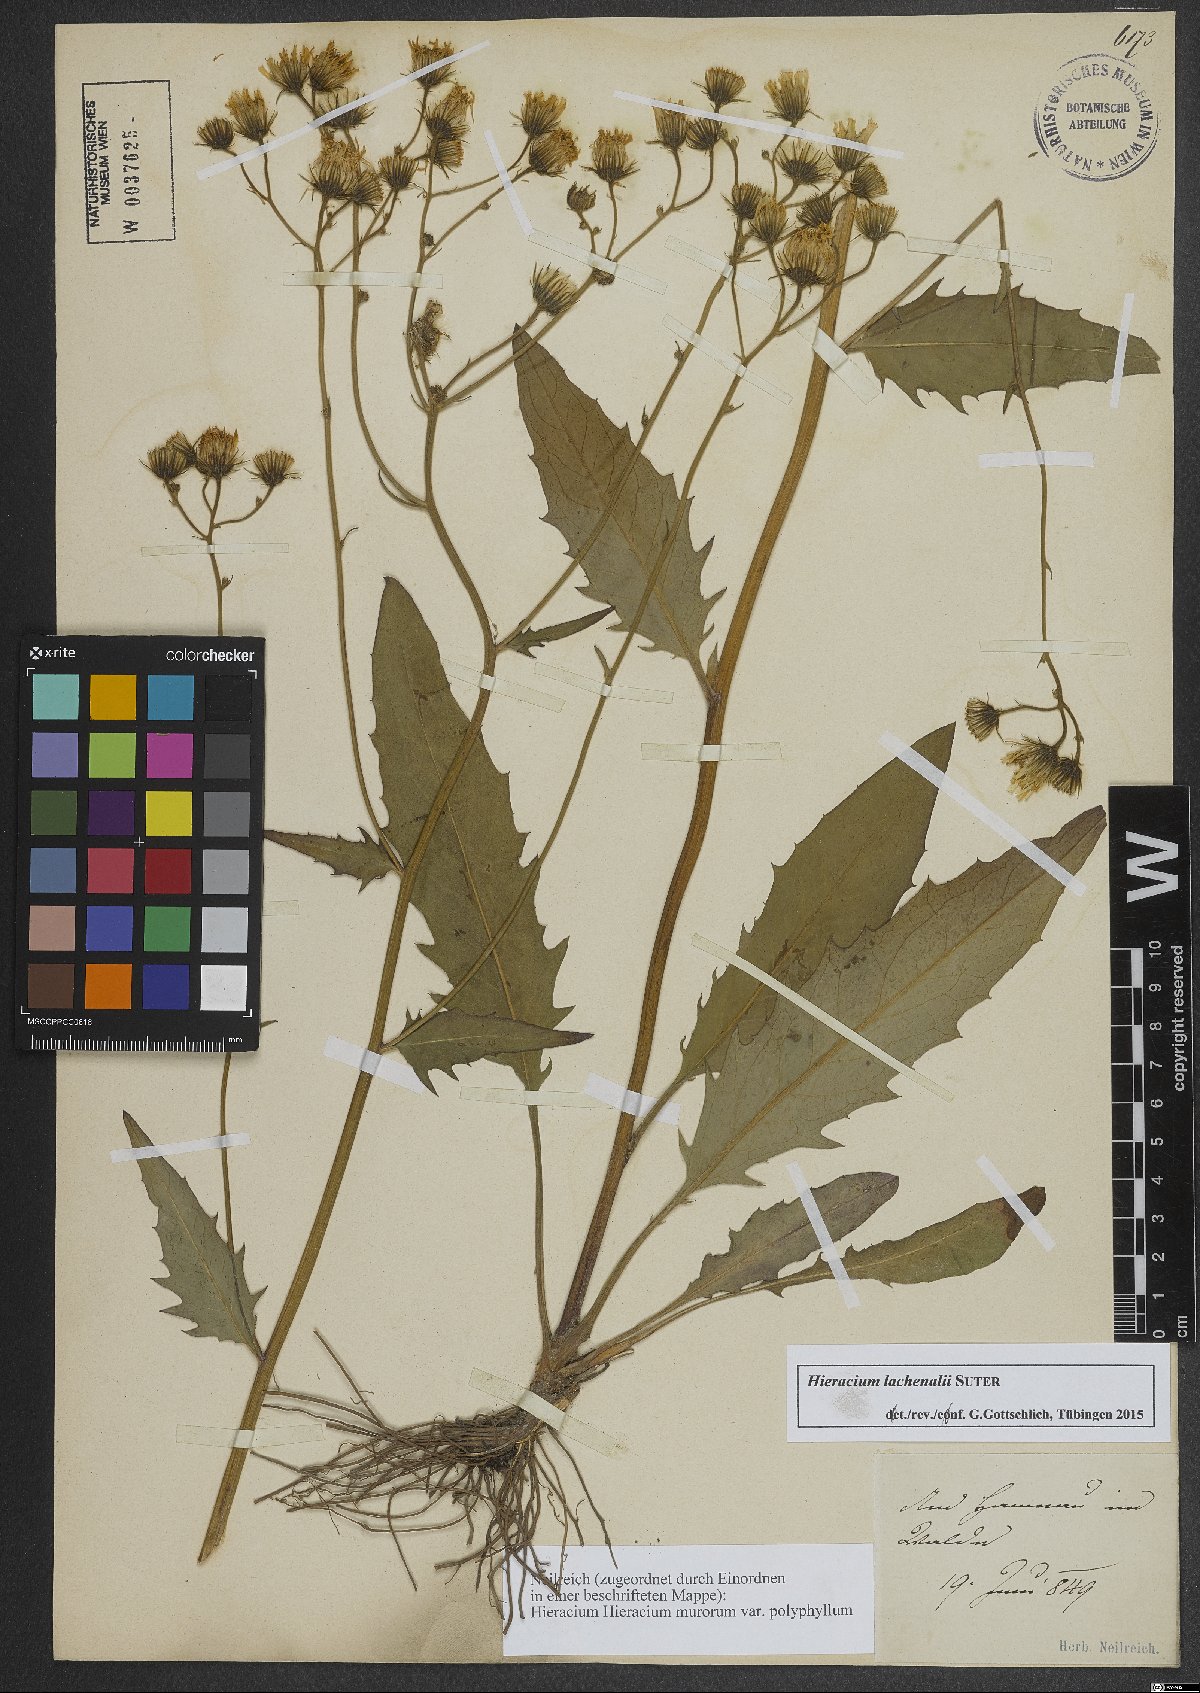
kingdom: Plantae
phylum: Tracheophyta
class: Magnoliopsida
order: Asterales
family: Asteraceae
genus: Hieracium
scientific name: Hieracium lachenalii
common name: Common hawkweed
